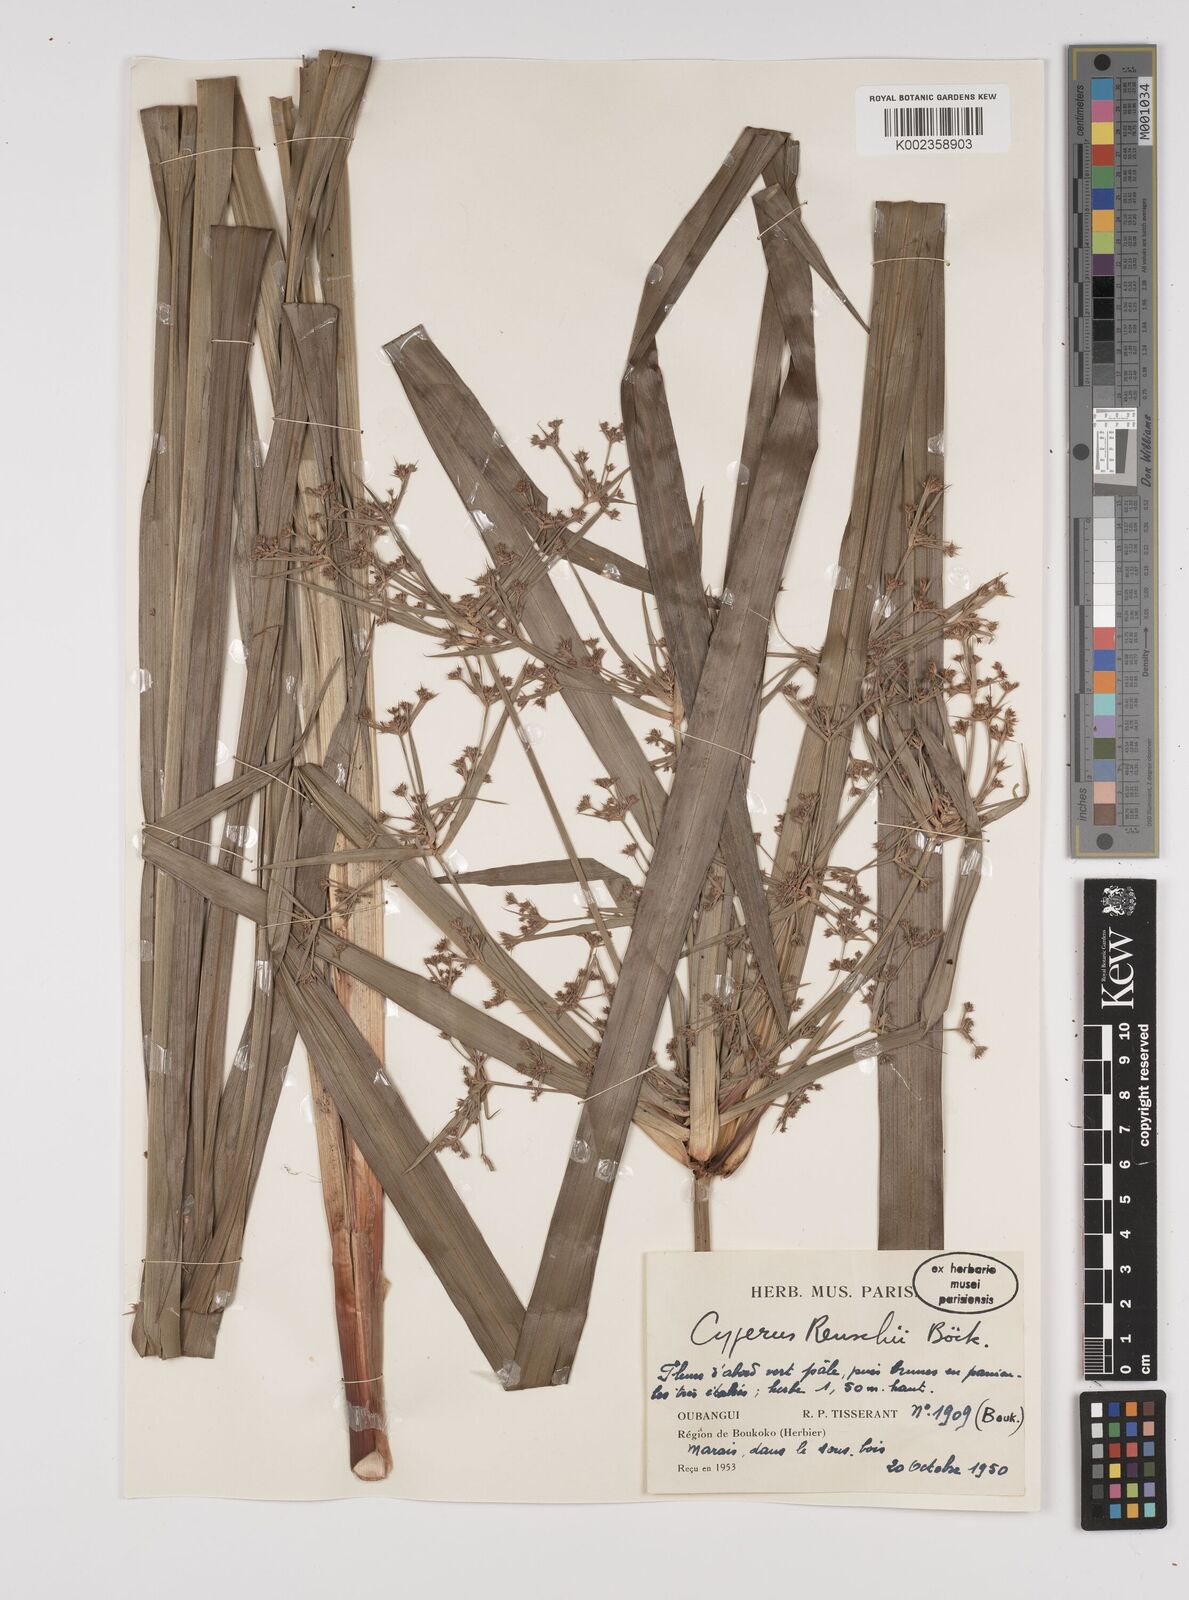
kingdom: Plantae
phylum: Tracheophyta
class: Liliopsida
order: Poales
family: Cyperaceae
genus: Cyperus
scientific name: Cyperus renschii
